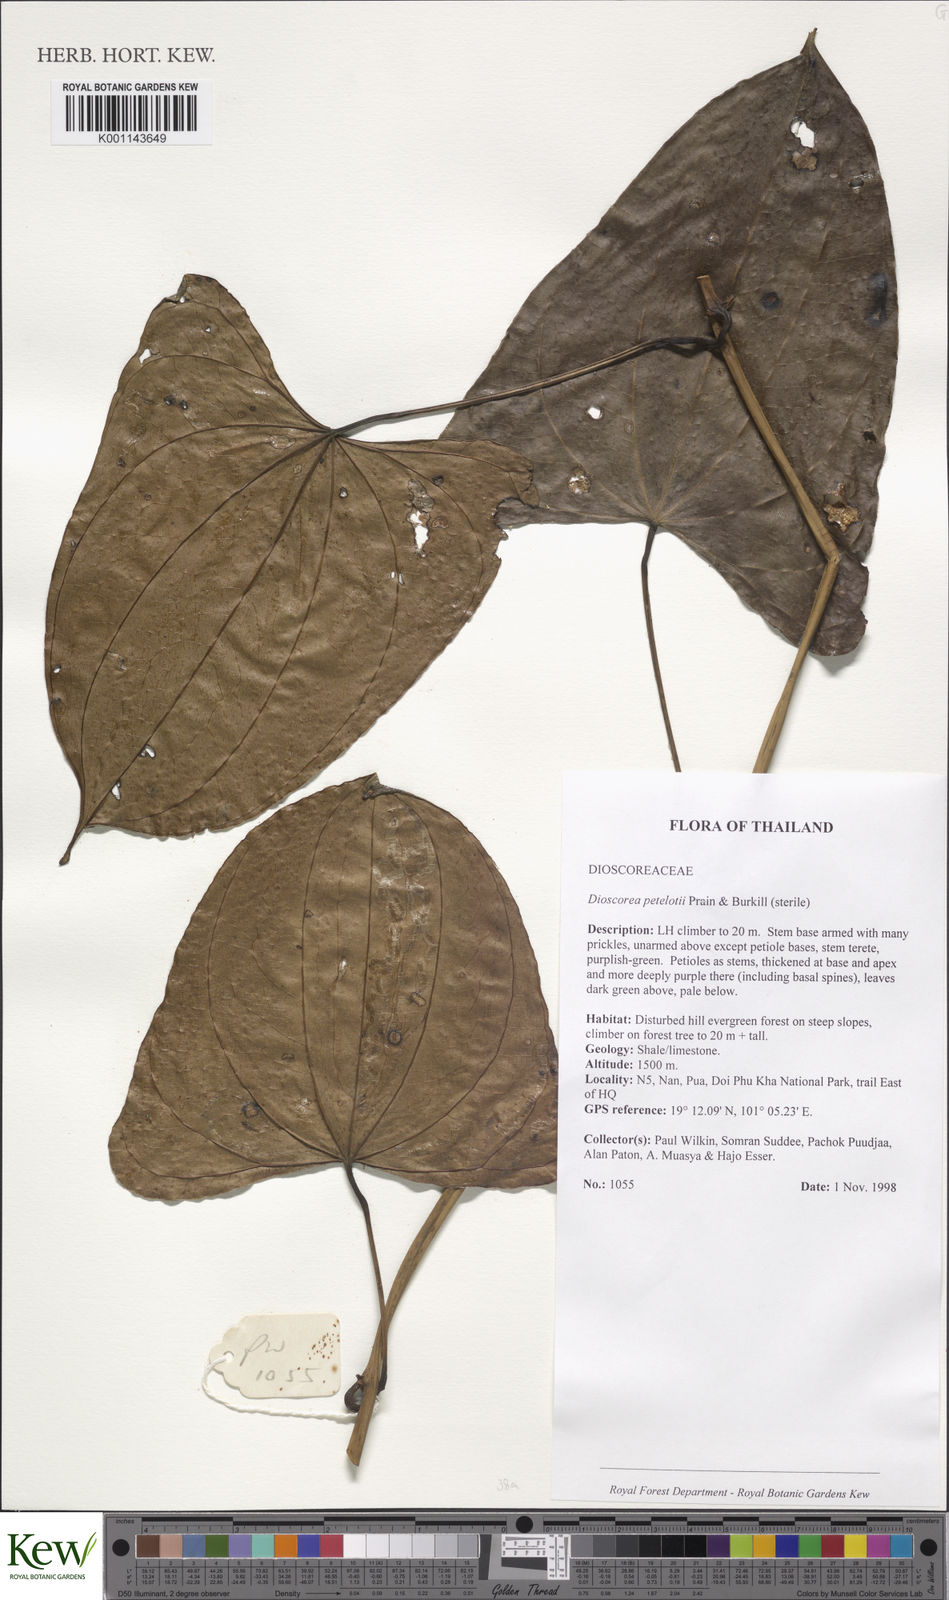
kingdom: Plantae
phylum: Tracheophyta
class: Liliopsida
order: Dioscoreales
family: Dioscoreaceae
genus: Dioscorea
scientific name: Dioscorea petelotii
